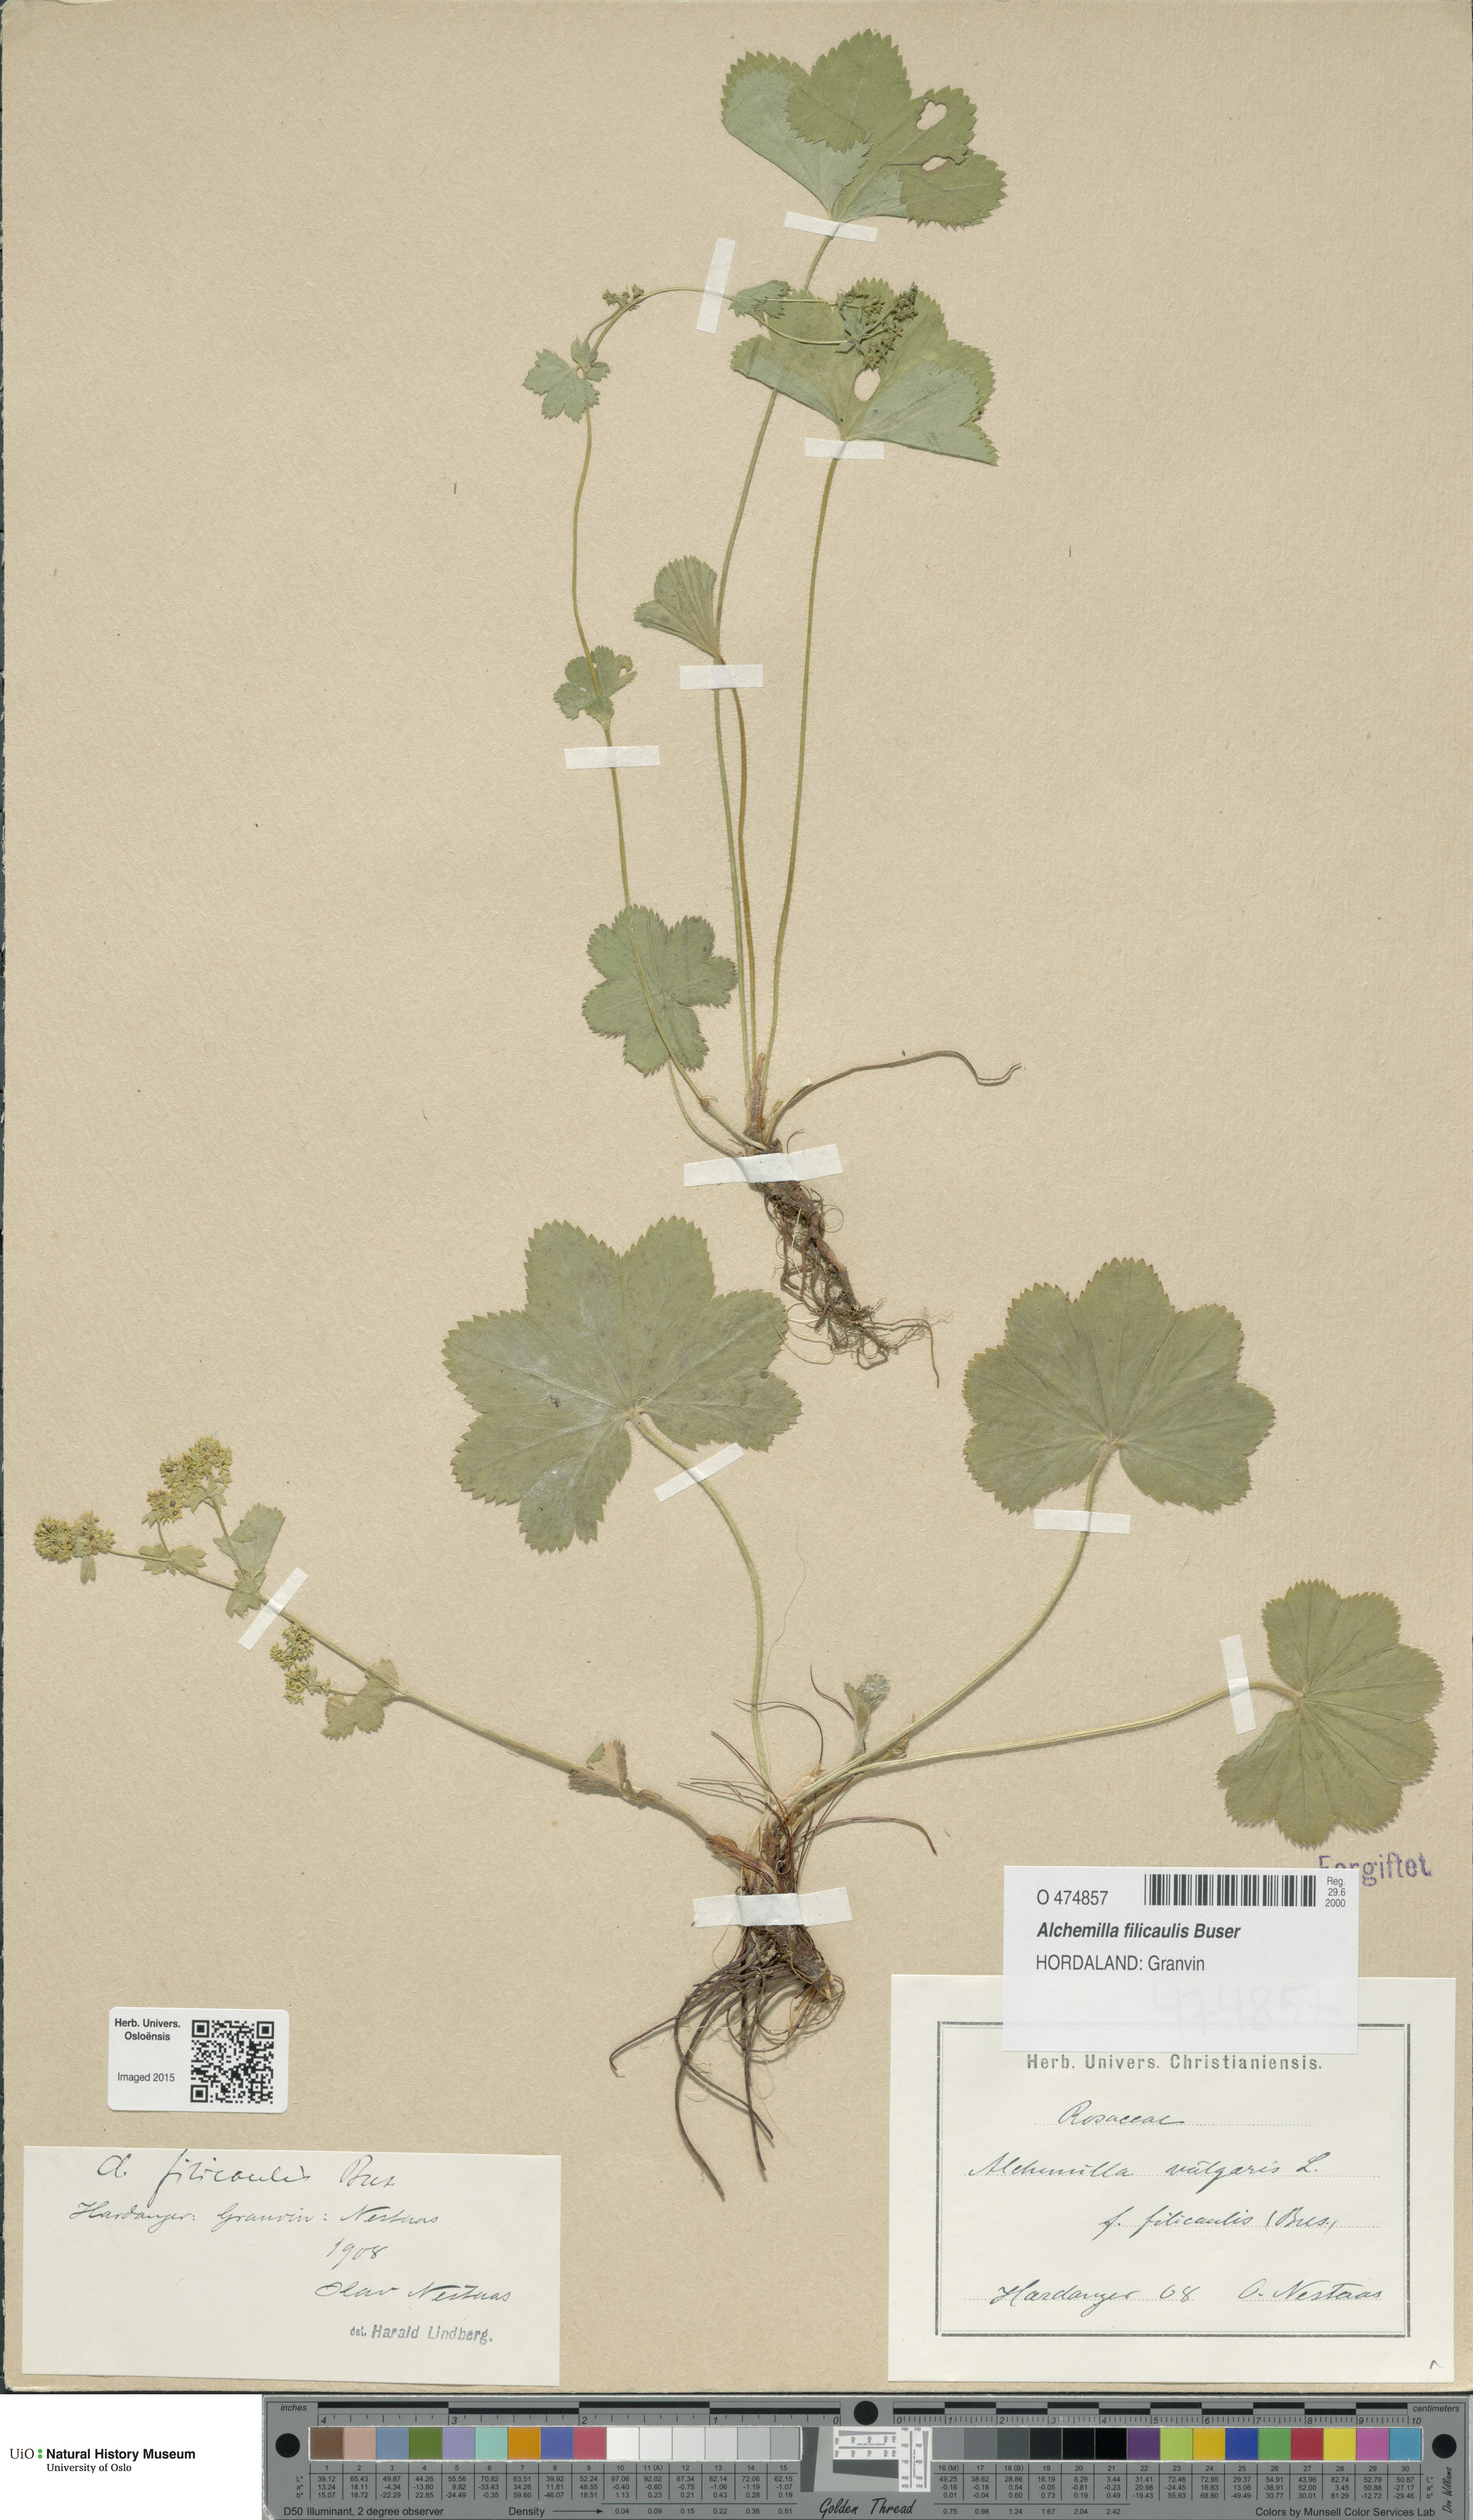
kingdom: Plantae
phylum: Tracheophyta
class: Magnoliopsida
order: Rosales
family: Rosaceae
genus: Alchemilla
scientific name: Alchemilla filicaulis
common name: Hairy lady's-mantle
